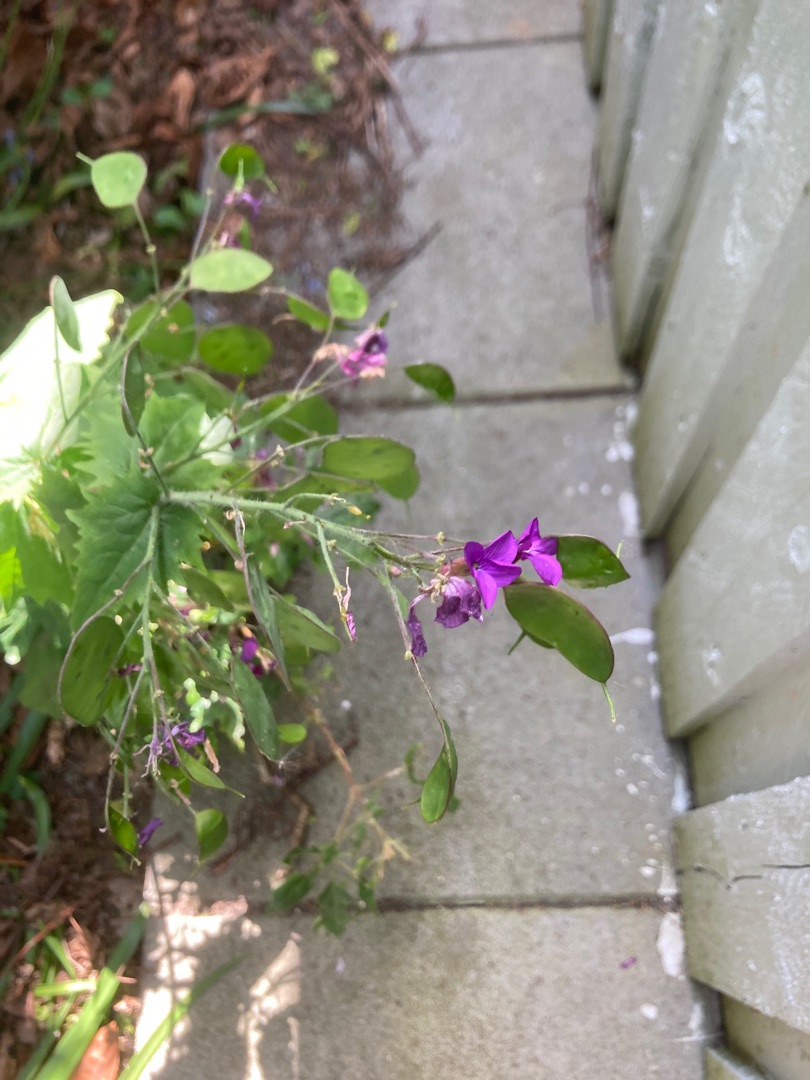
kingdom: Plantae
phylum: Tracheophyta
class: Magnoliopsida
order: Brassicales
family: Brassicaceae
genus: Lunaria
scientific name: Lunaria annua
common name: Judaspenge
